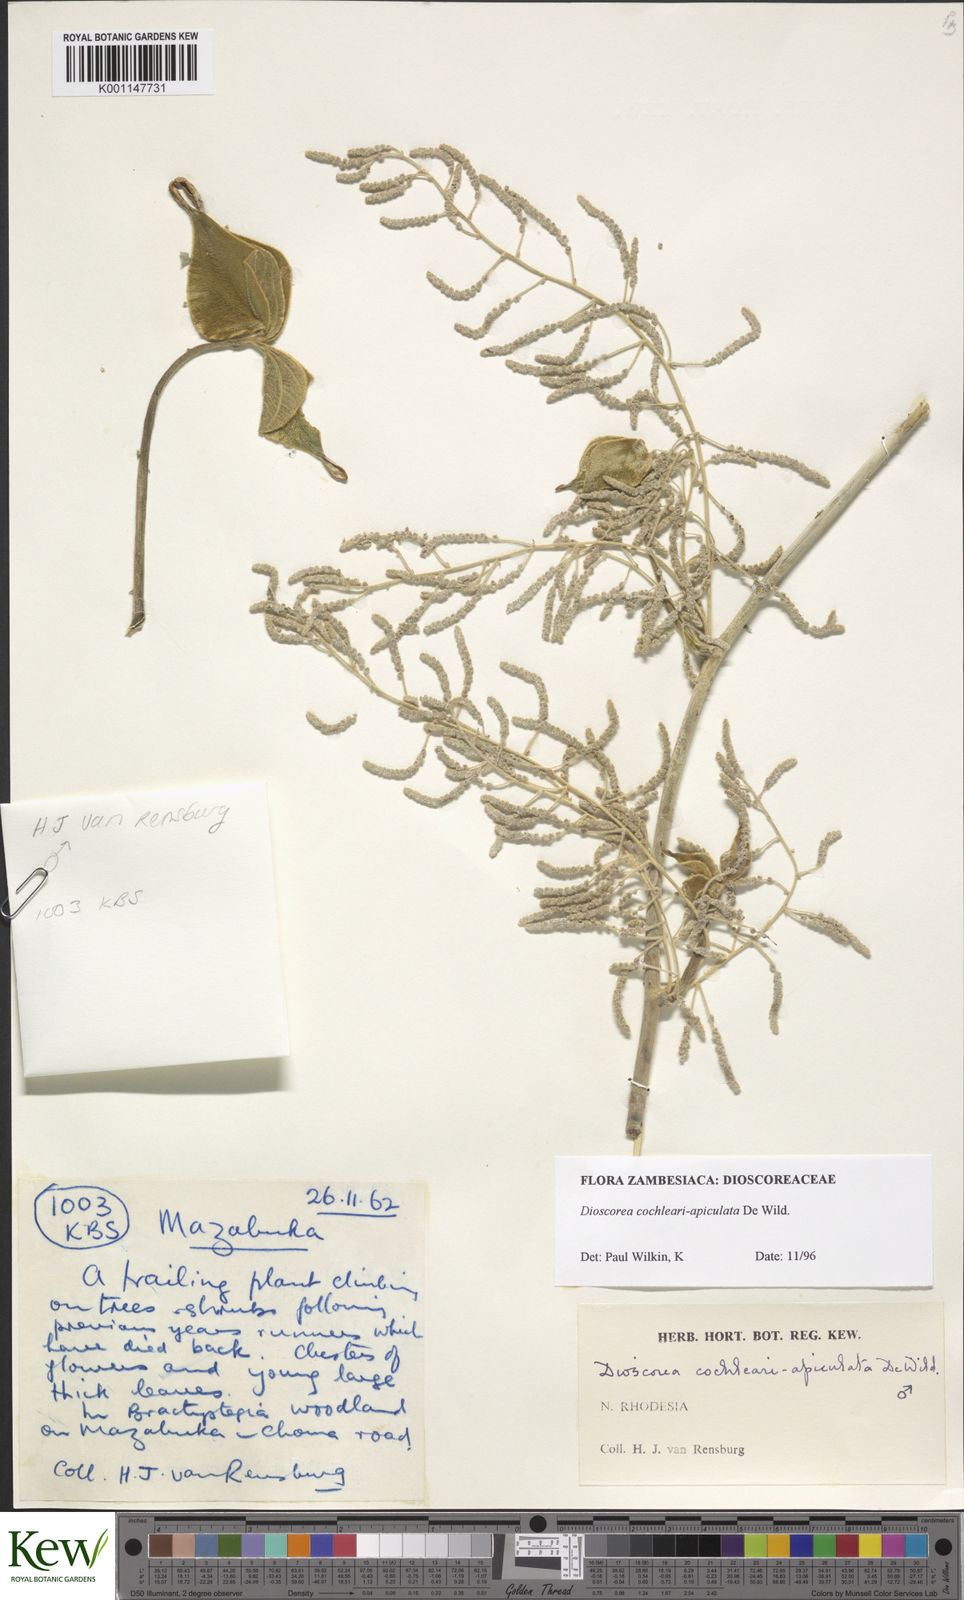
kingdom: Plantae
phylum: Tracheophyta
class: Liliopsida
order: Dioscoreales
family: Dioscoreaceae
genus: Dioscorea
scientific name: Dioscorea cochleariapiculata
